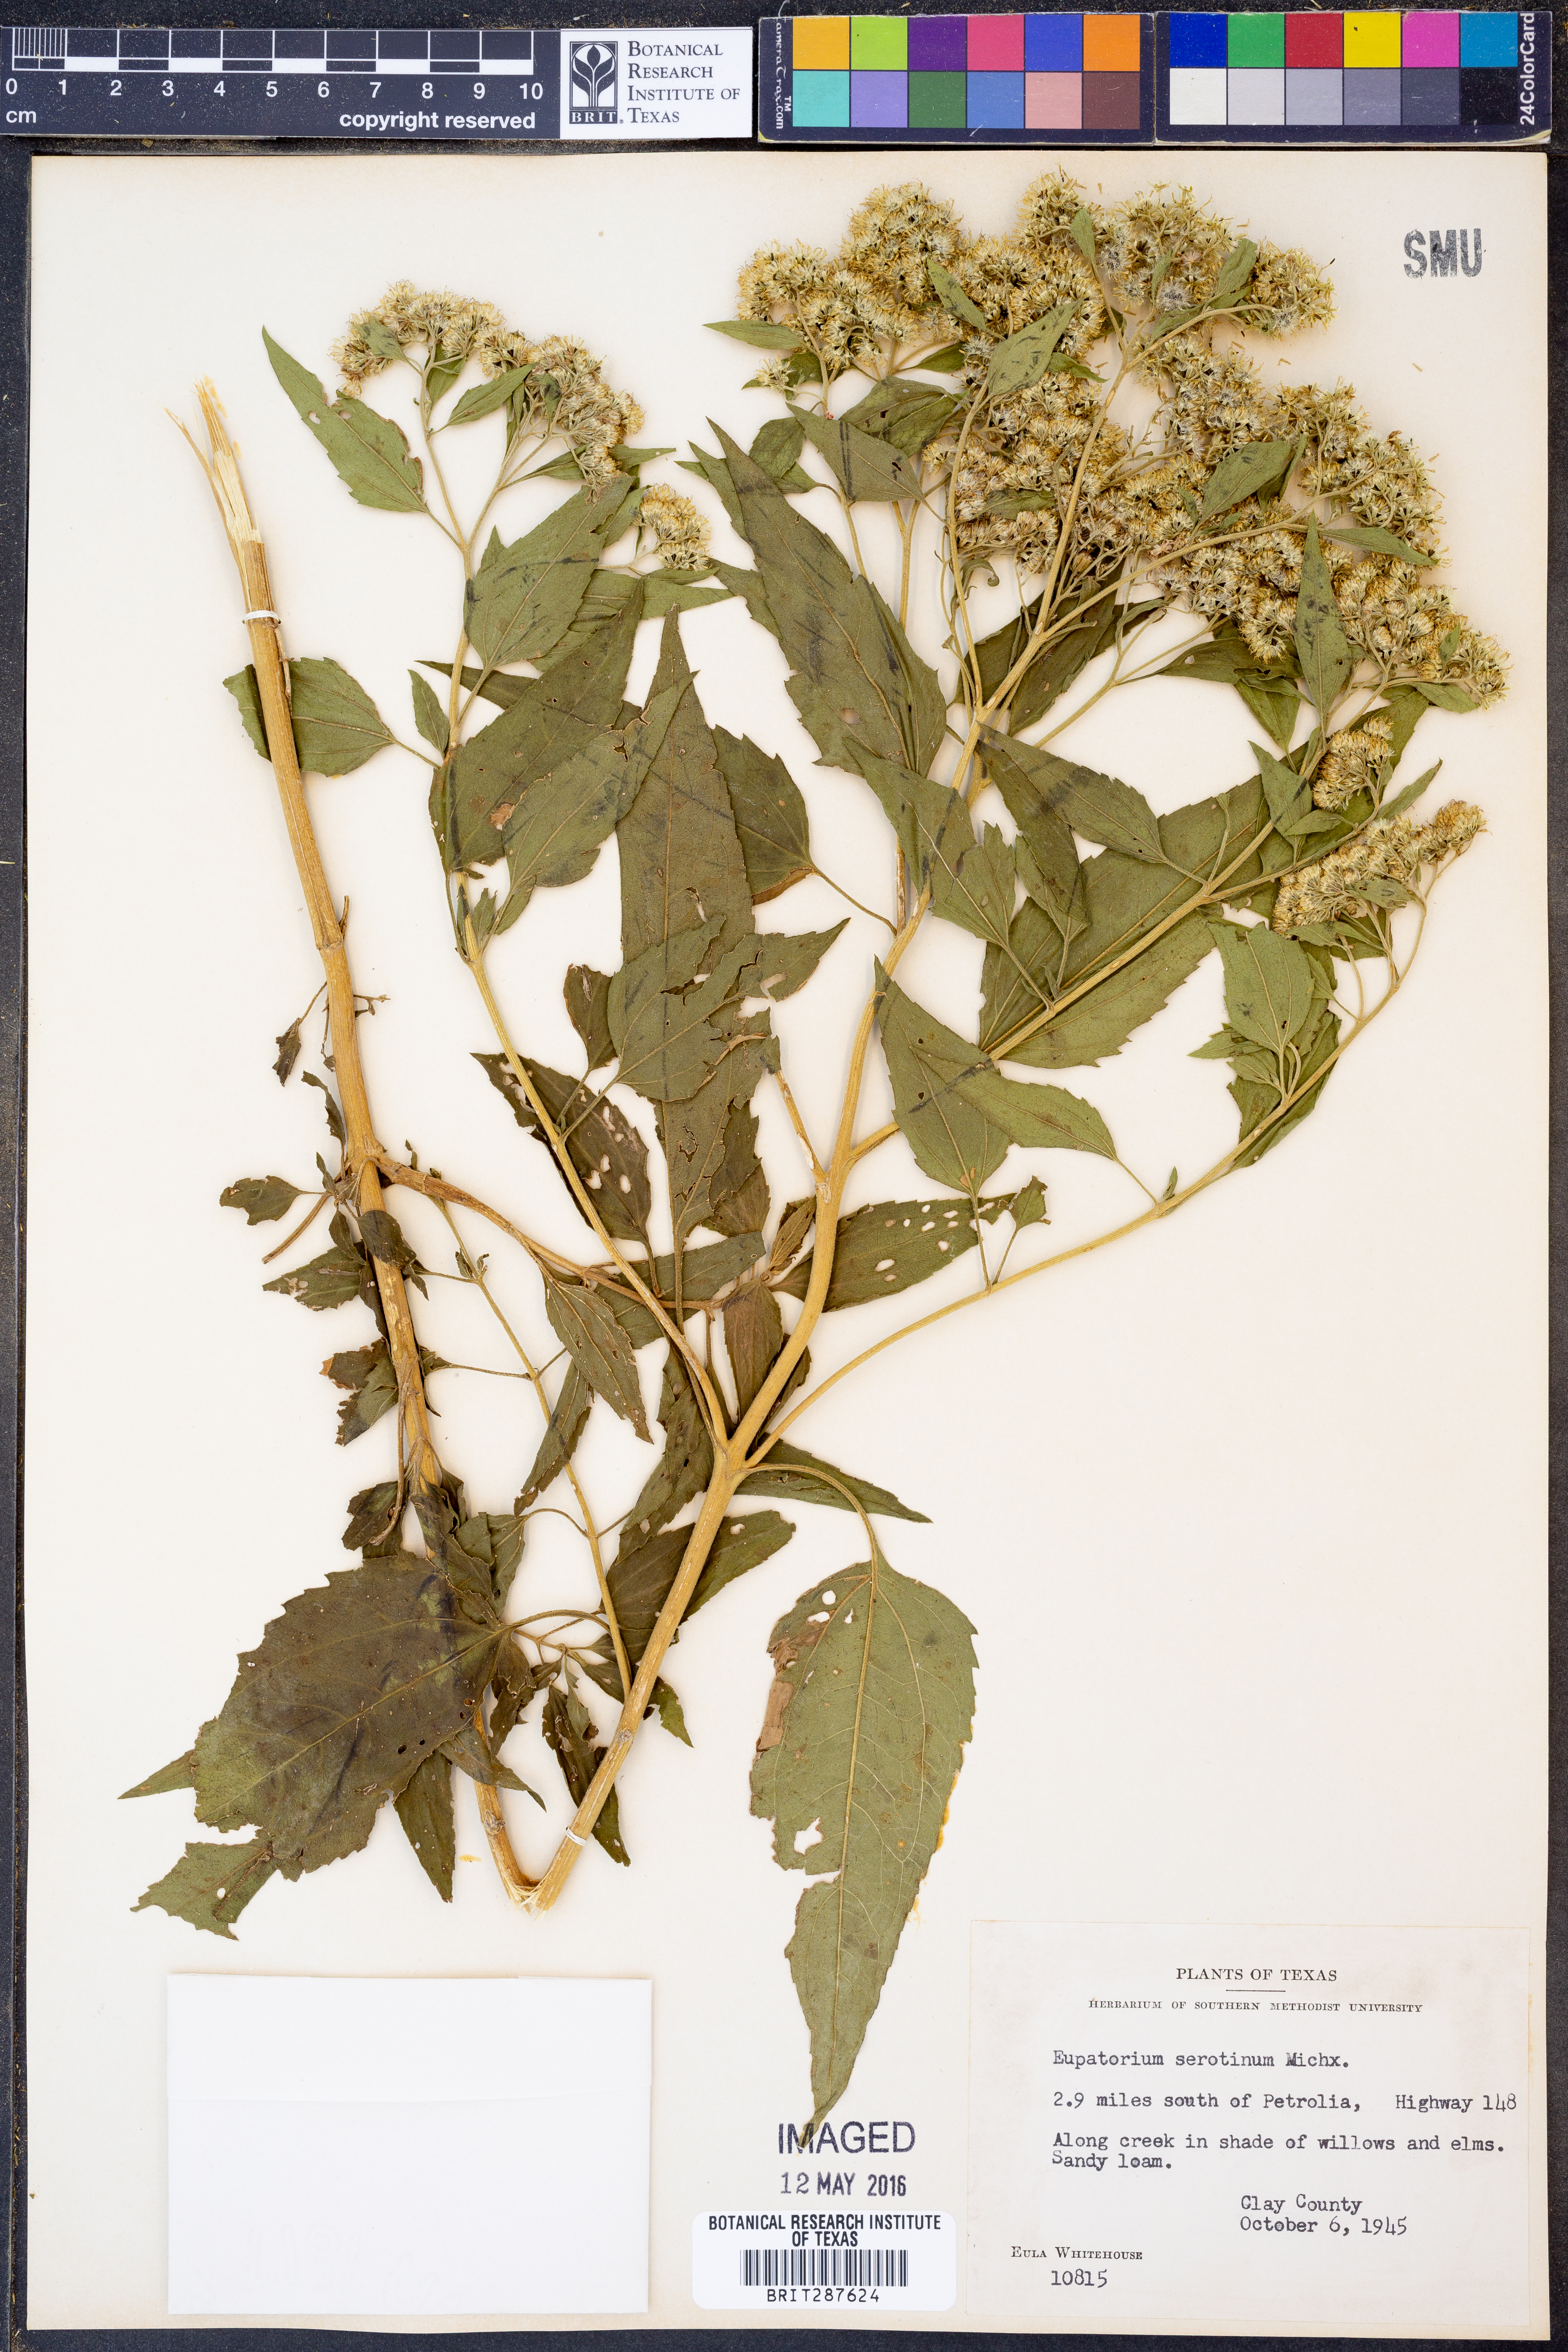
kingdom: Plantae
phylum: Tracheophyta
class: Magnoliopsida
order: Asterales
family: Asteraceae
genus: Eupatorium
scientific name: Eupatorium serotinum
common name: Late boneset
